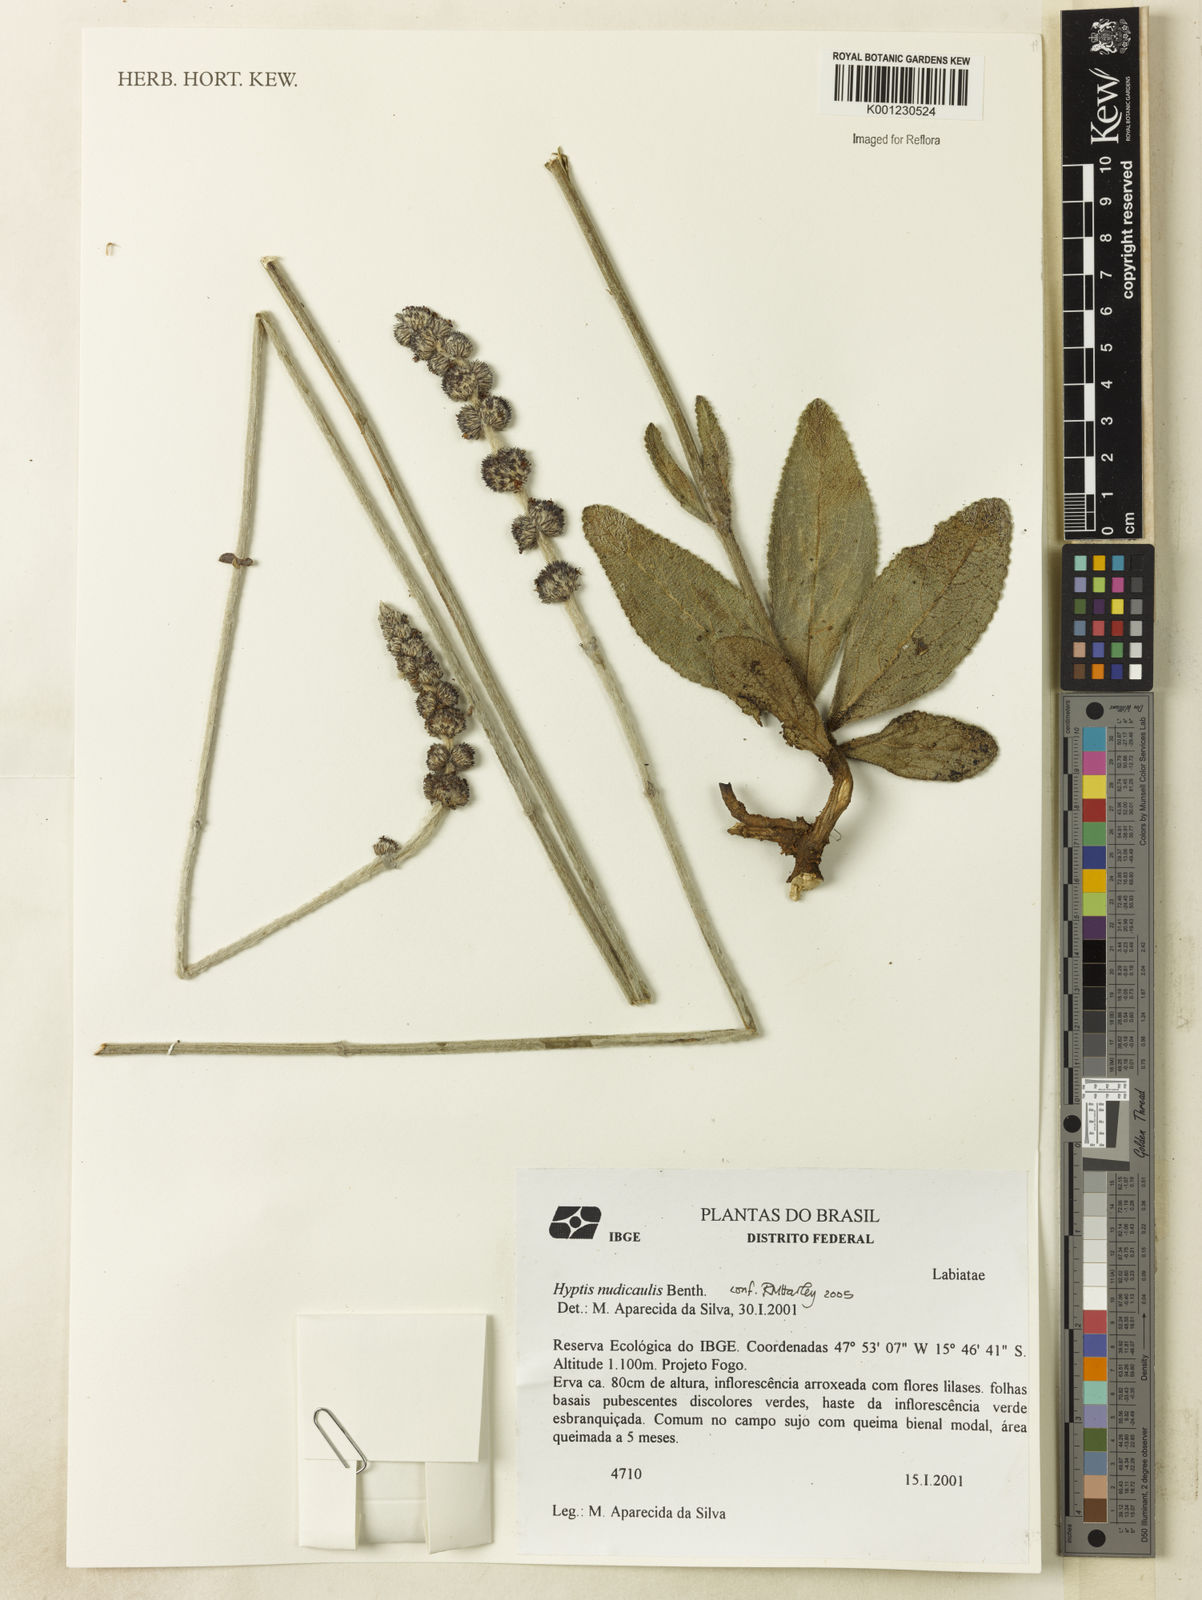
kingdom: Plantae
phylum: Tracheophyta
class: Magnoliopsida
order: Lamiales
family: Lamiaceae
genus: Hyptis
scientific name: Hyptis nudicaulis
